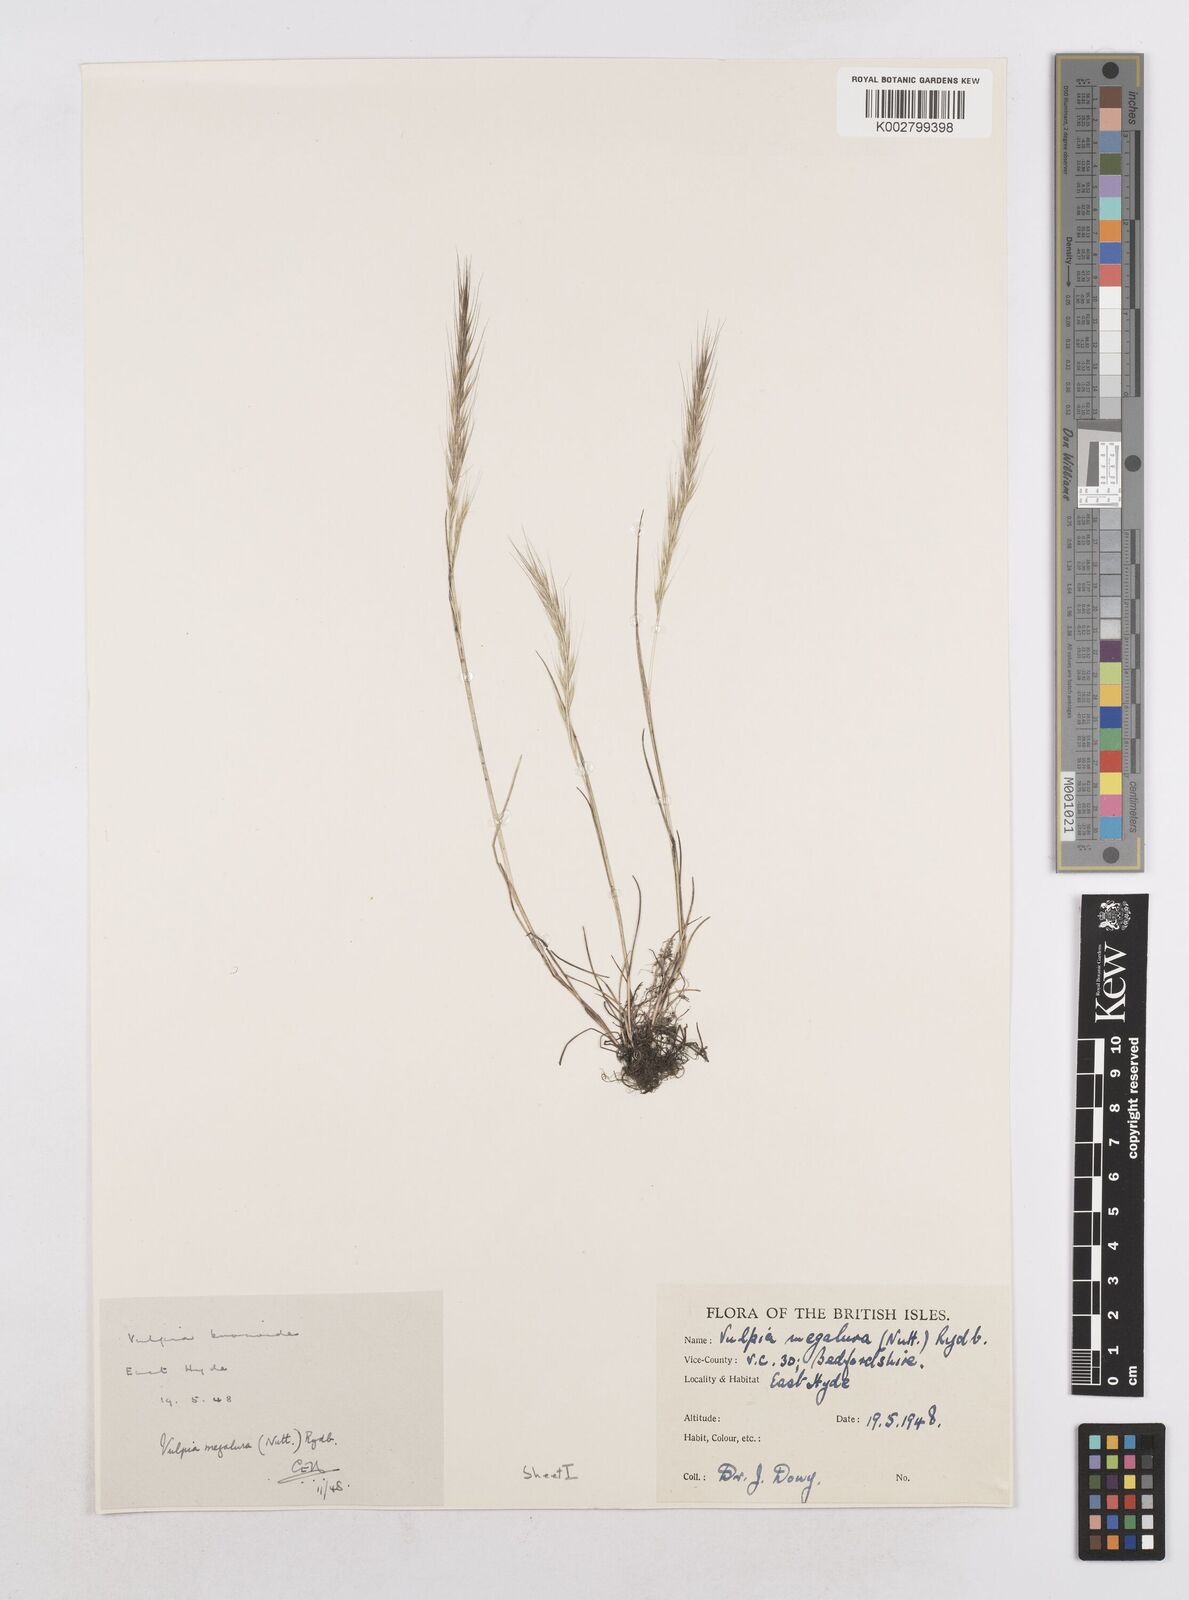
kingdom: Plantae
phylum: Tracheophyta
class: Liliopsida
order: Poales
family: Poaceae
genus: Festuca
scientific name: Festuca myuros
